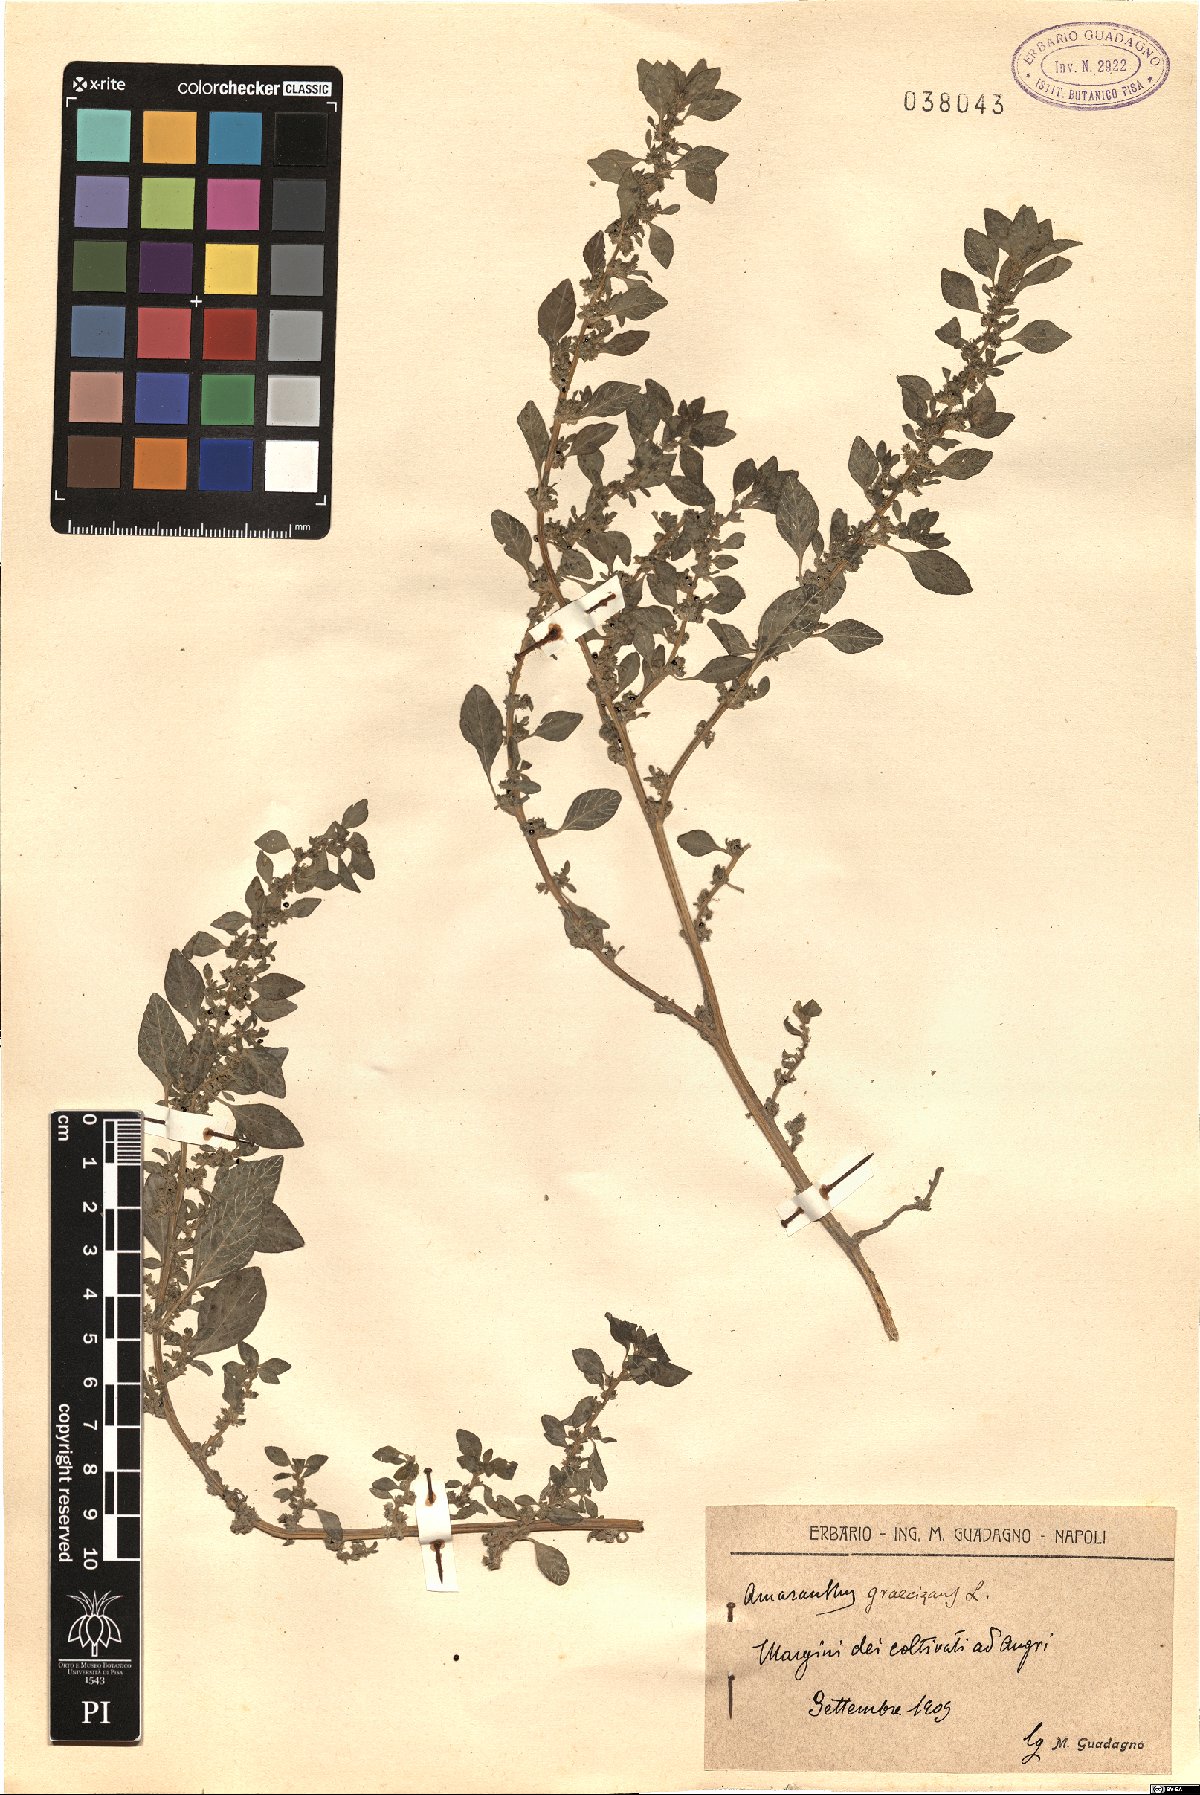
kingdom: Plantae
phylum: Tracheophyta
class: Magnoliopsida
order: Caryophyllales
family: Amaranthaceae
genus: Amaranthus
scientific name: Amaranthus graecizans
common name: Mediterranean amaranth
